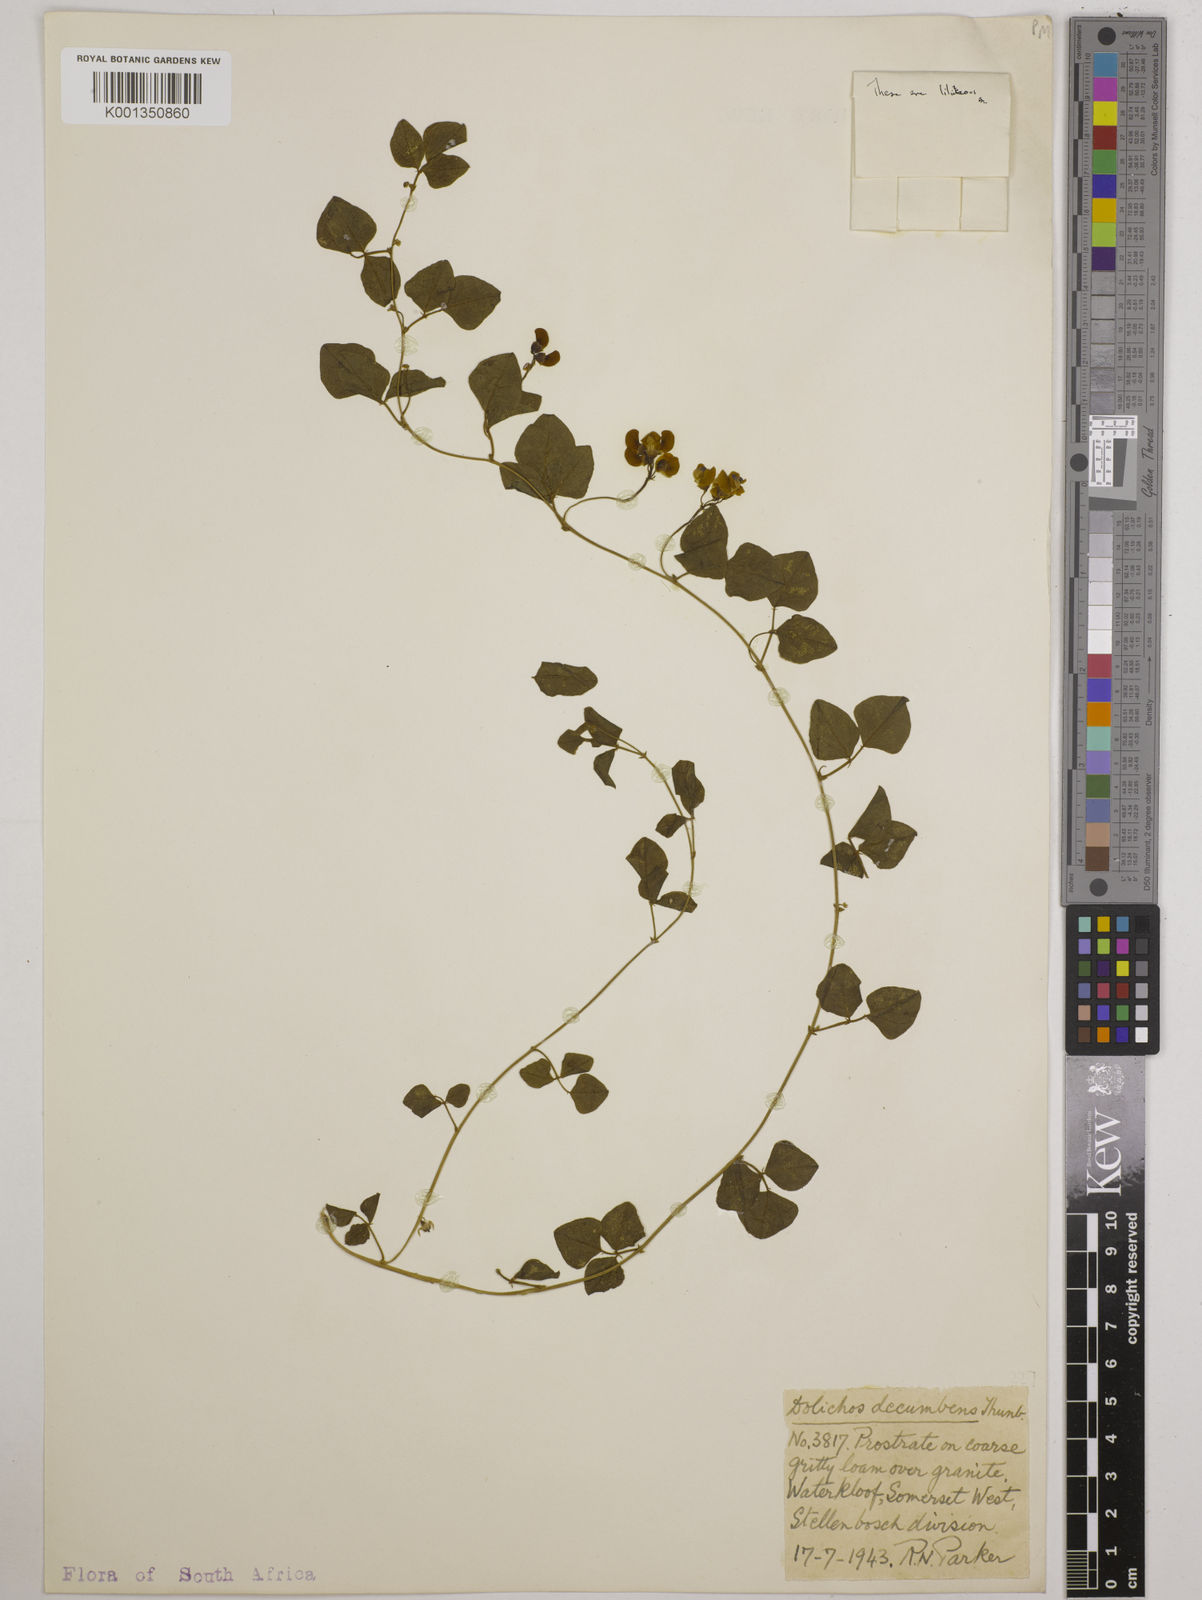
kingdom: Plantae
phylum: Tracheophyta
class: Magnoliopsida
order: Fabales
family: Fabaceae
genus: Dolichos
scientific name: Dolichos decumbens
